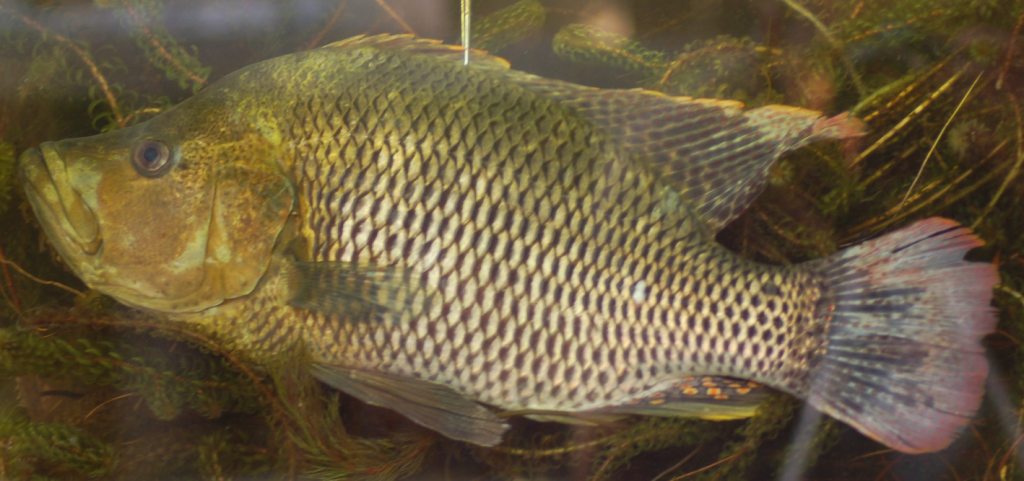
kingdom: Animalia
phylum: Chordata
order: Perciformes
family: Cichlidae
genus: Serranochromis
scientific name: Serranochromis altus
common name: Humpback largemouth
